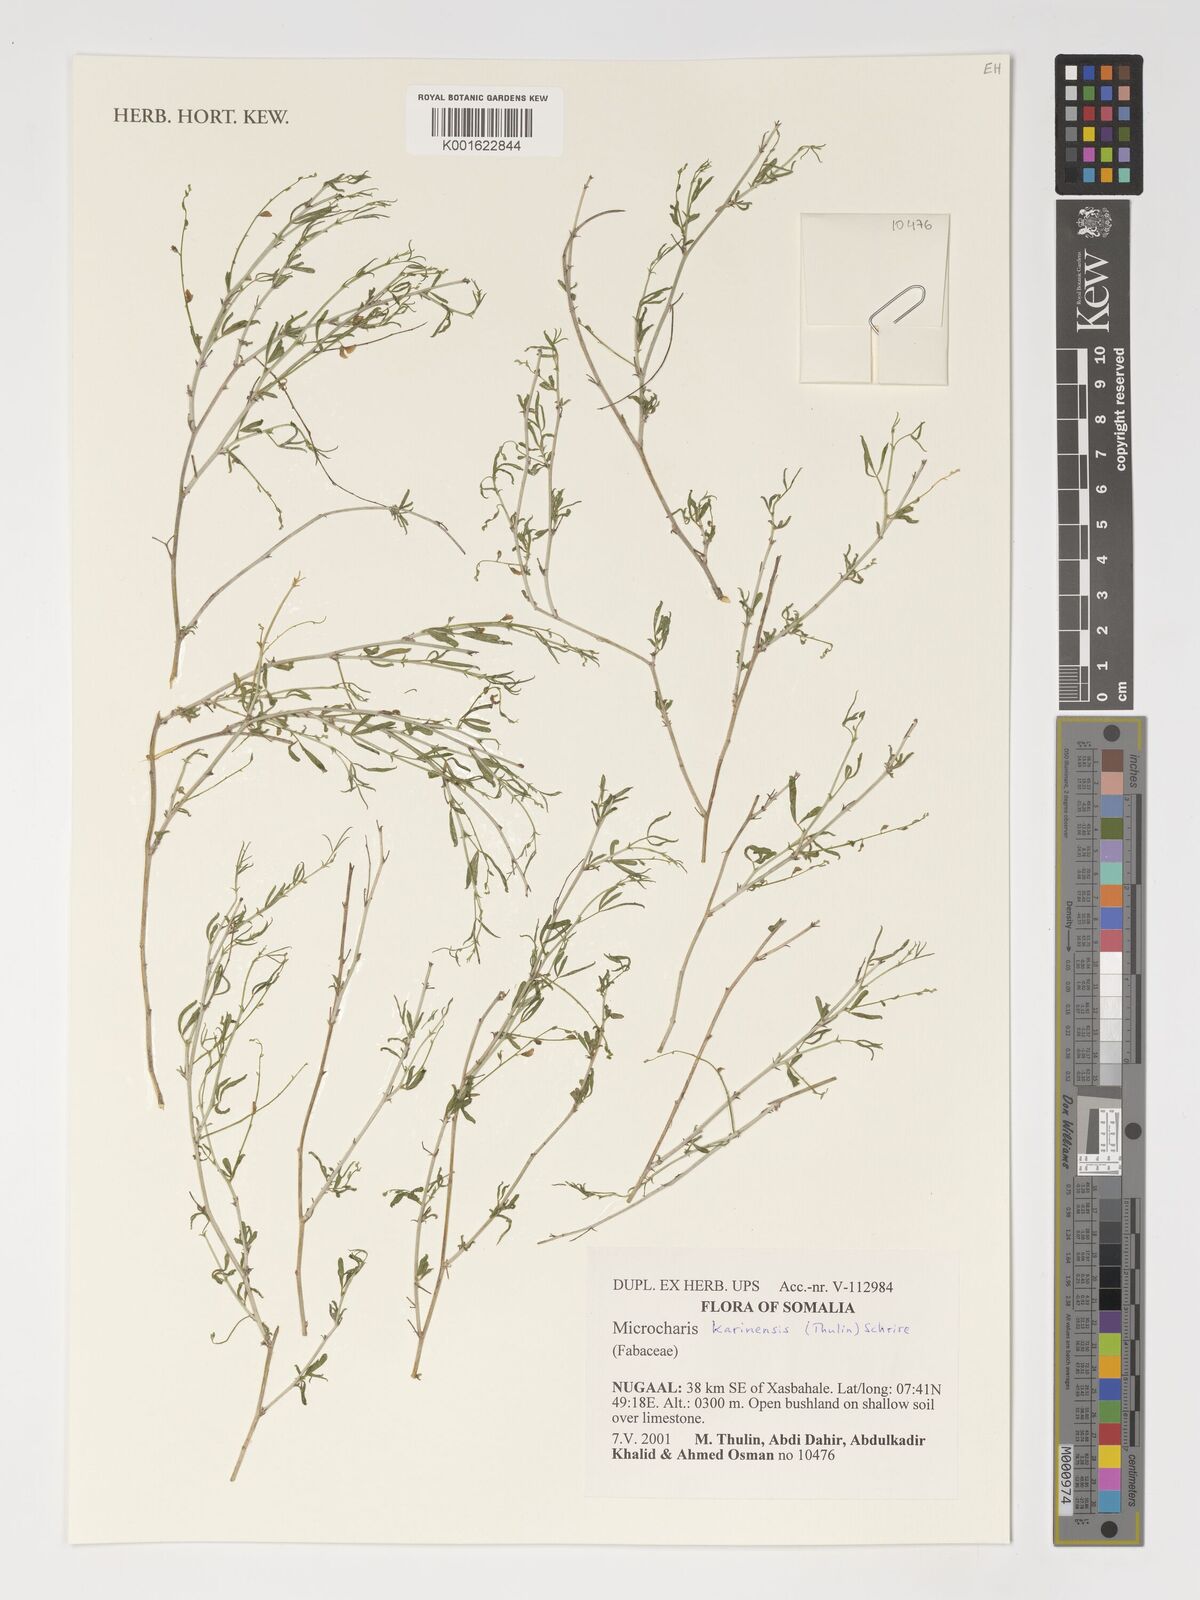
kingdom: Plantae
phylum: Tracheophyta
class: Magnoliopsida
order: Fabales
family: Fabaceae
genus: Microcharis
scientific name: Microcharis karinensis
